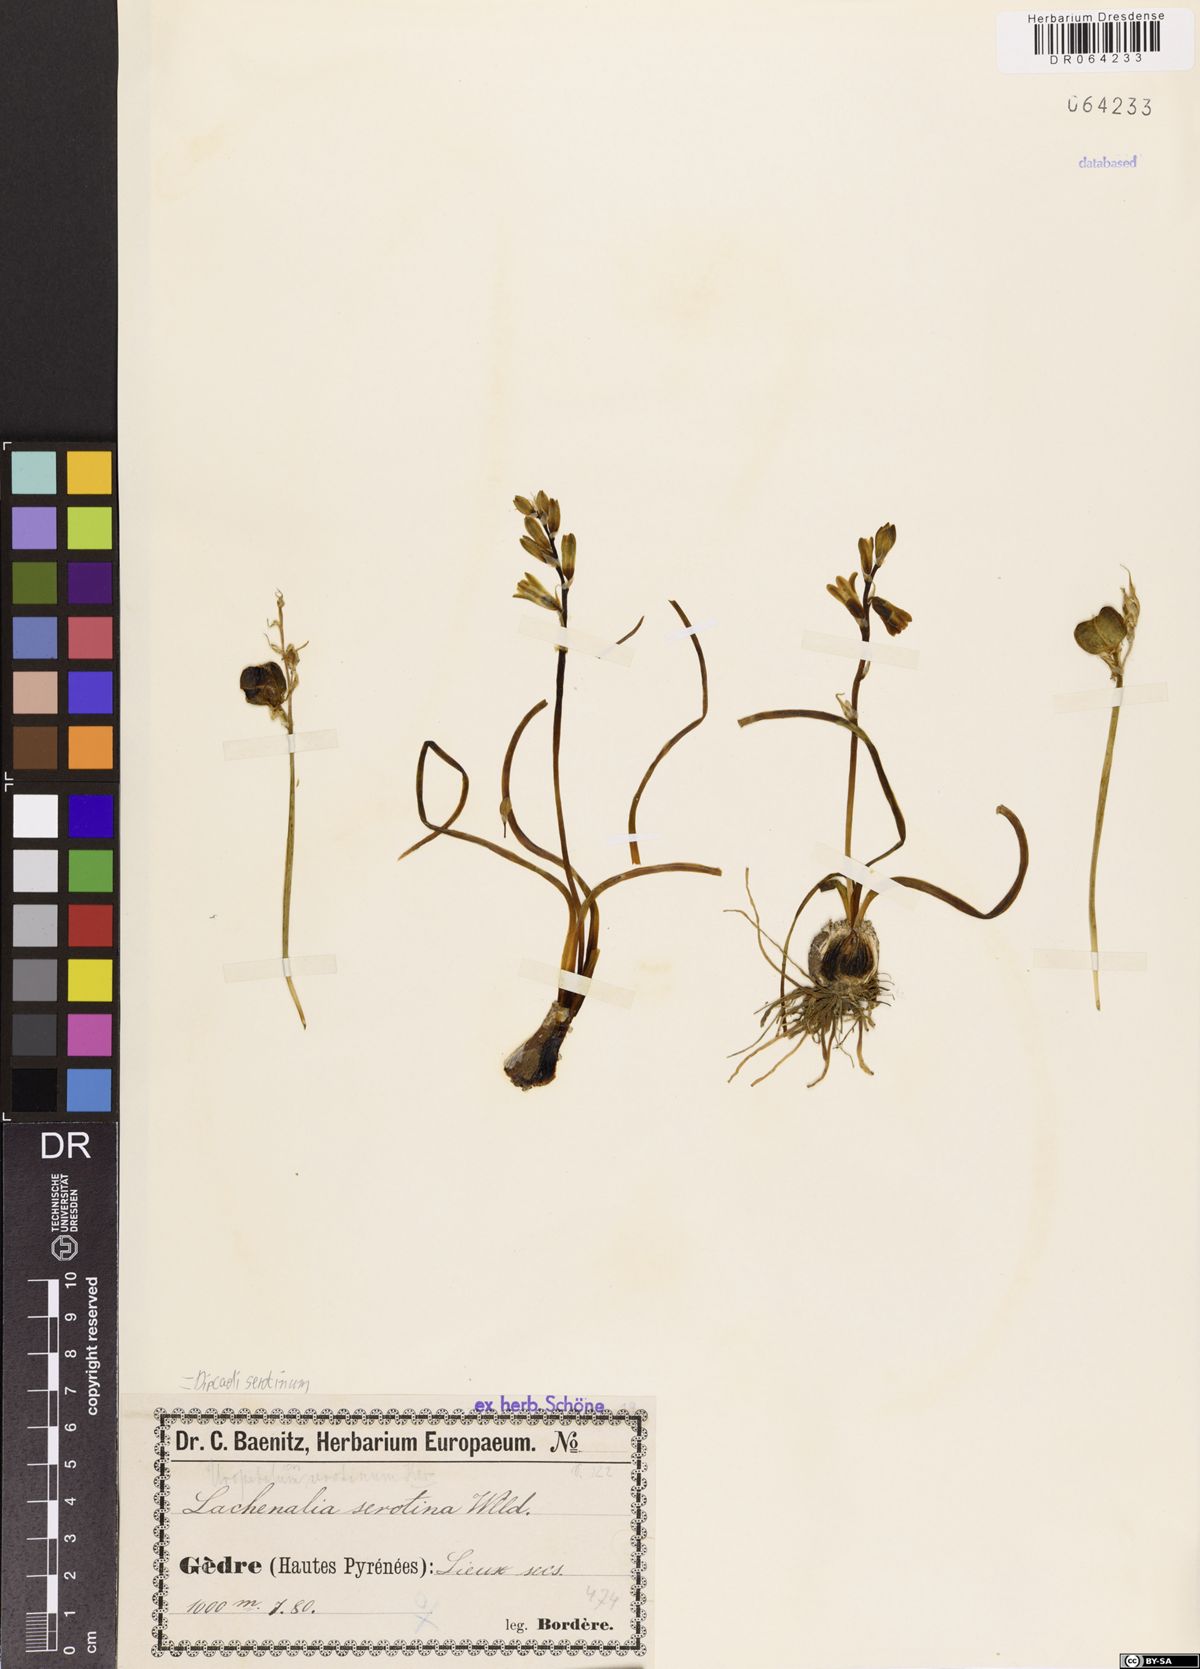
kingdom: Plantae
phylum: Tracheophyta
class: Liliopsida
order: Asparagales
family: Asparagaceae
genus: Dipcadi
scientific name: Dipcadi serotinum
